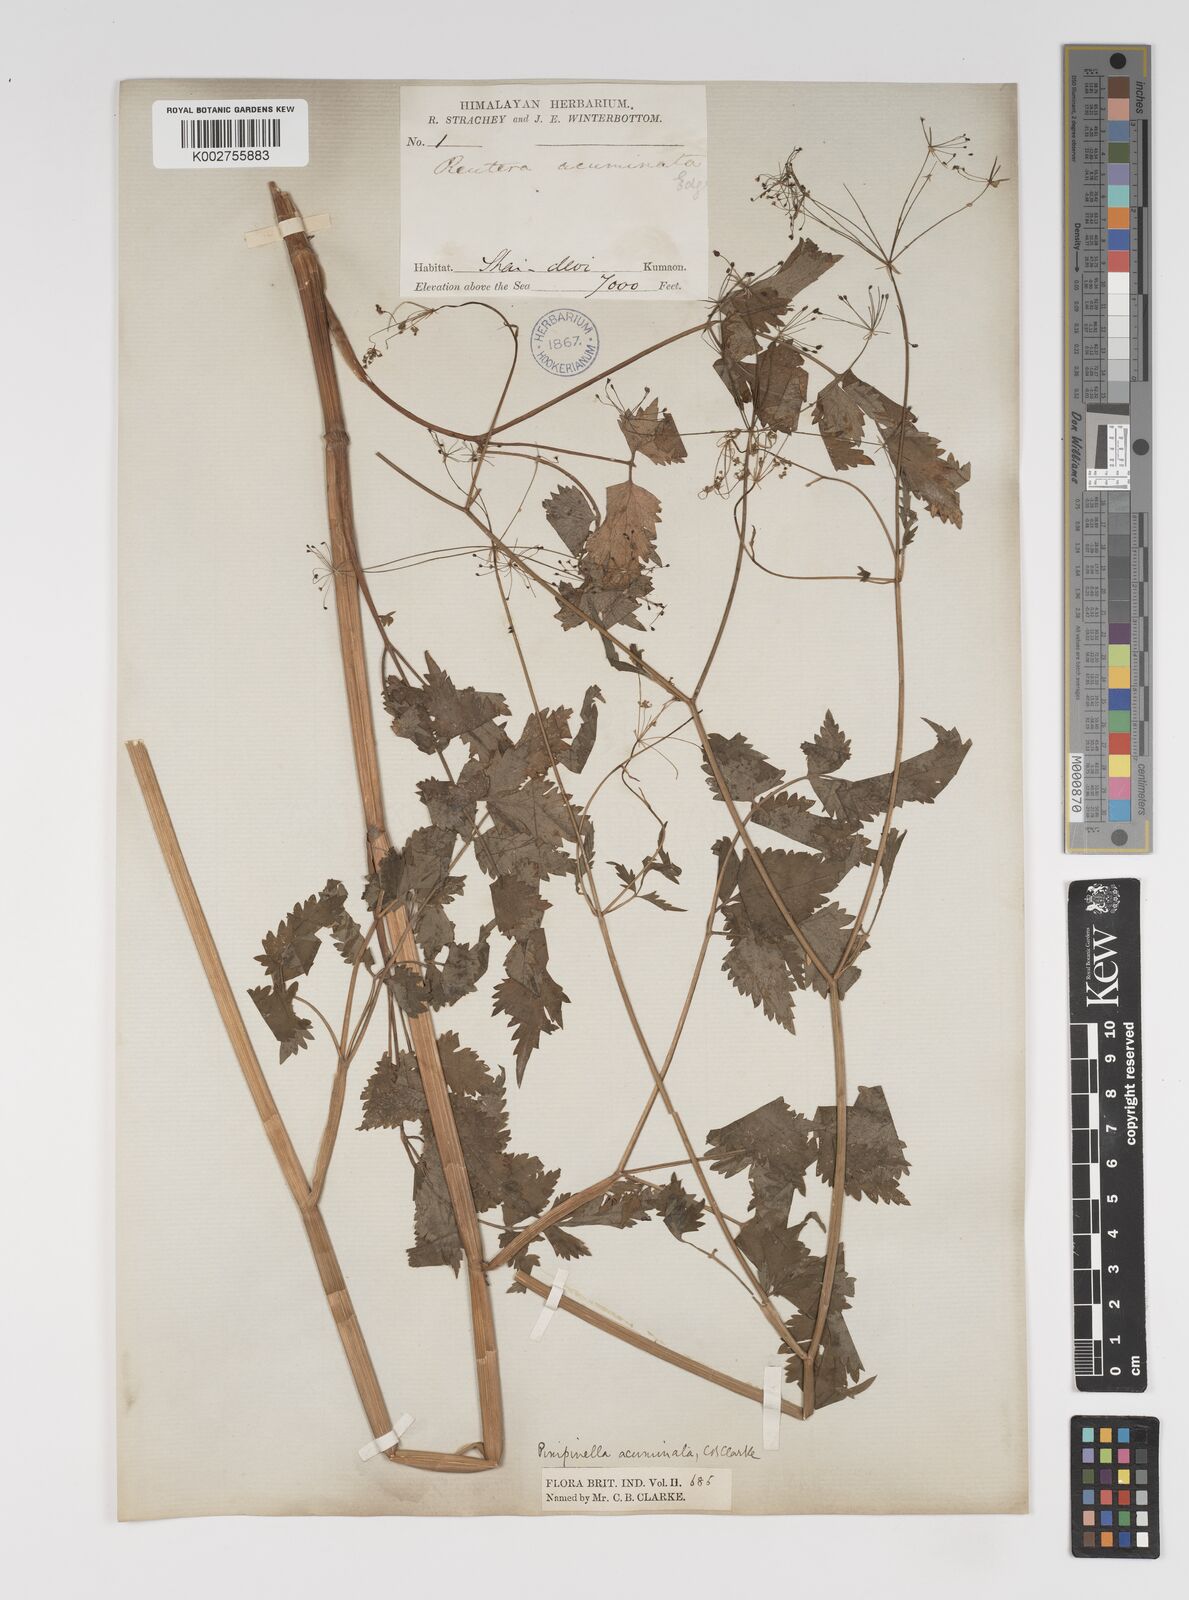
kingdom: Plantae
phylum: Tracheophyta
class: Magnoliopsida
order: Apiales
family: Apiaceae
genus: Pimpinella
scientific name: Pimpinella acuminata
